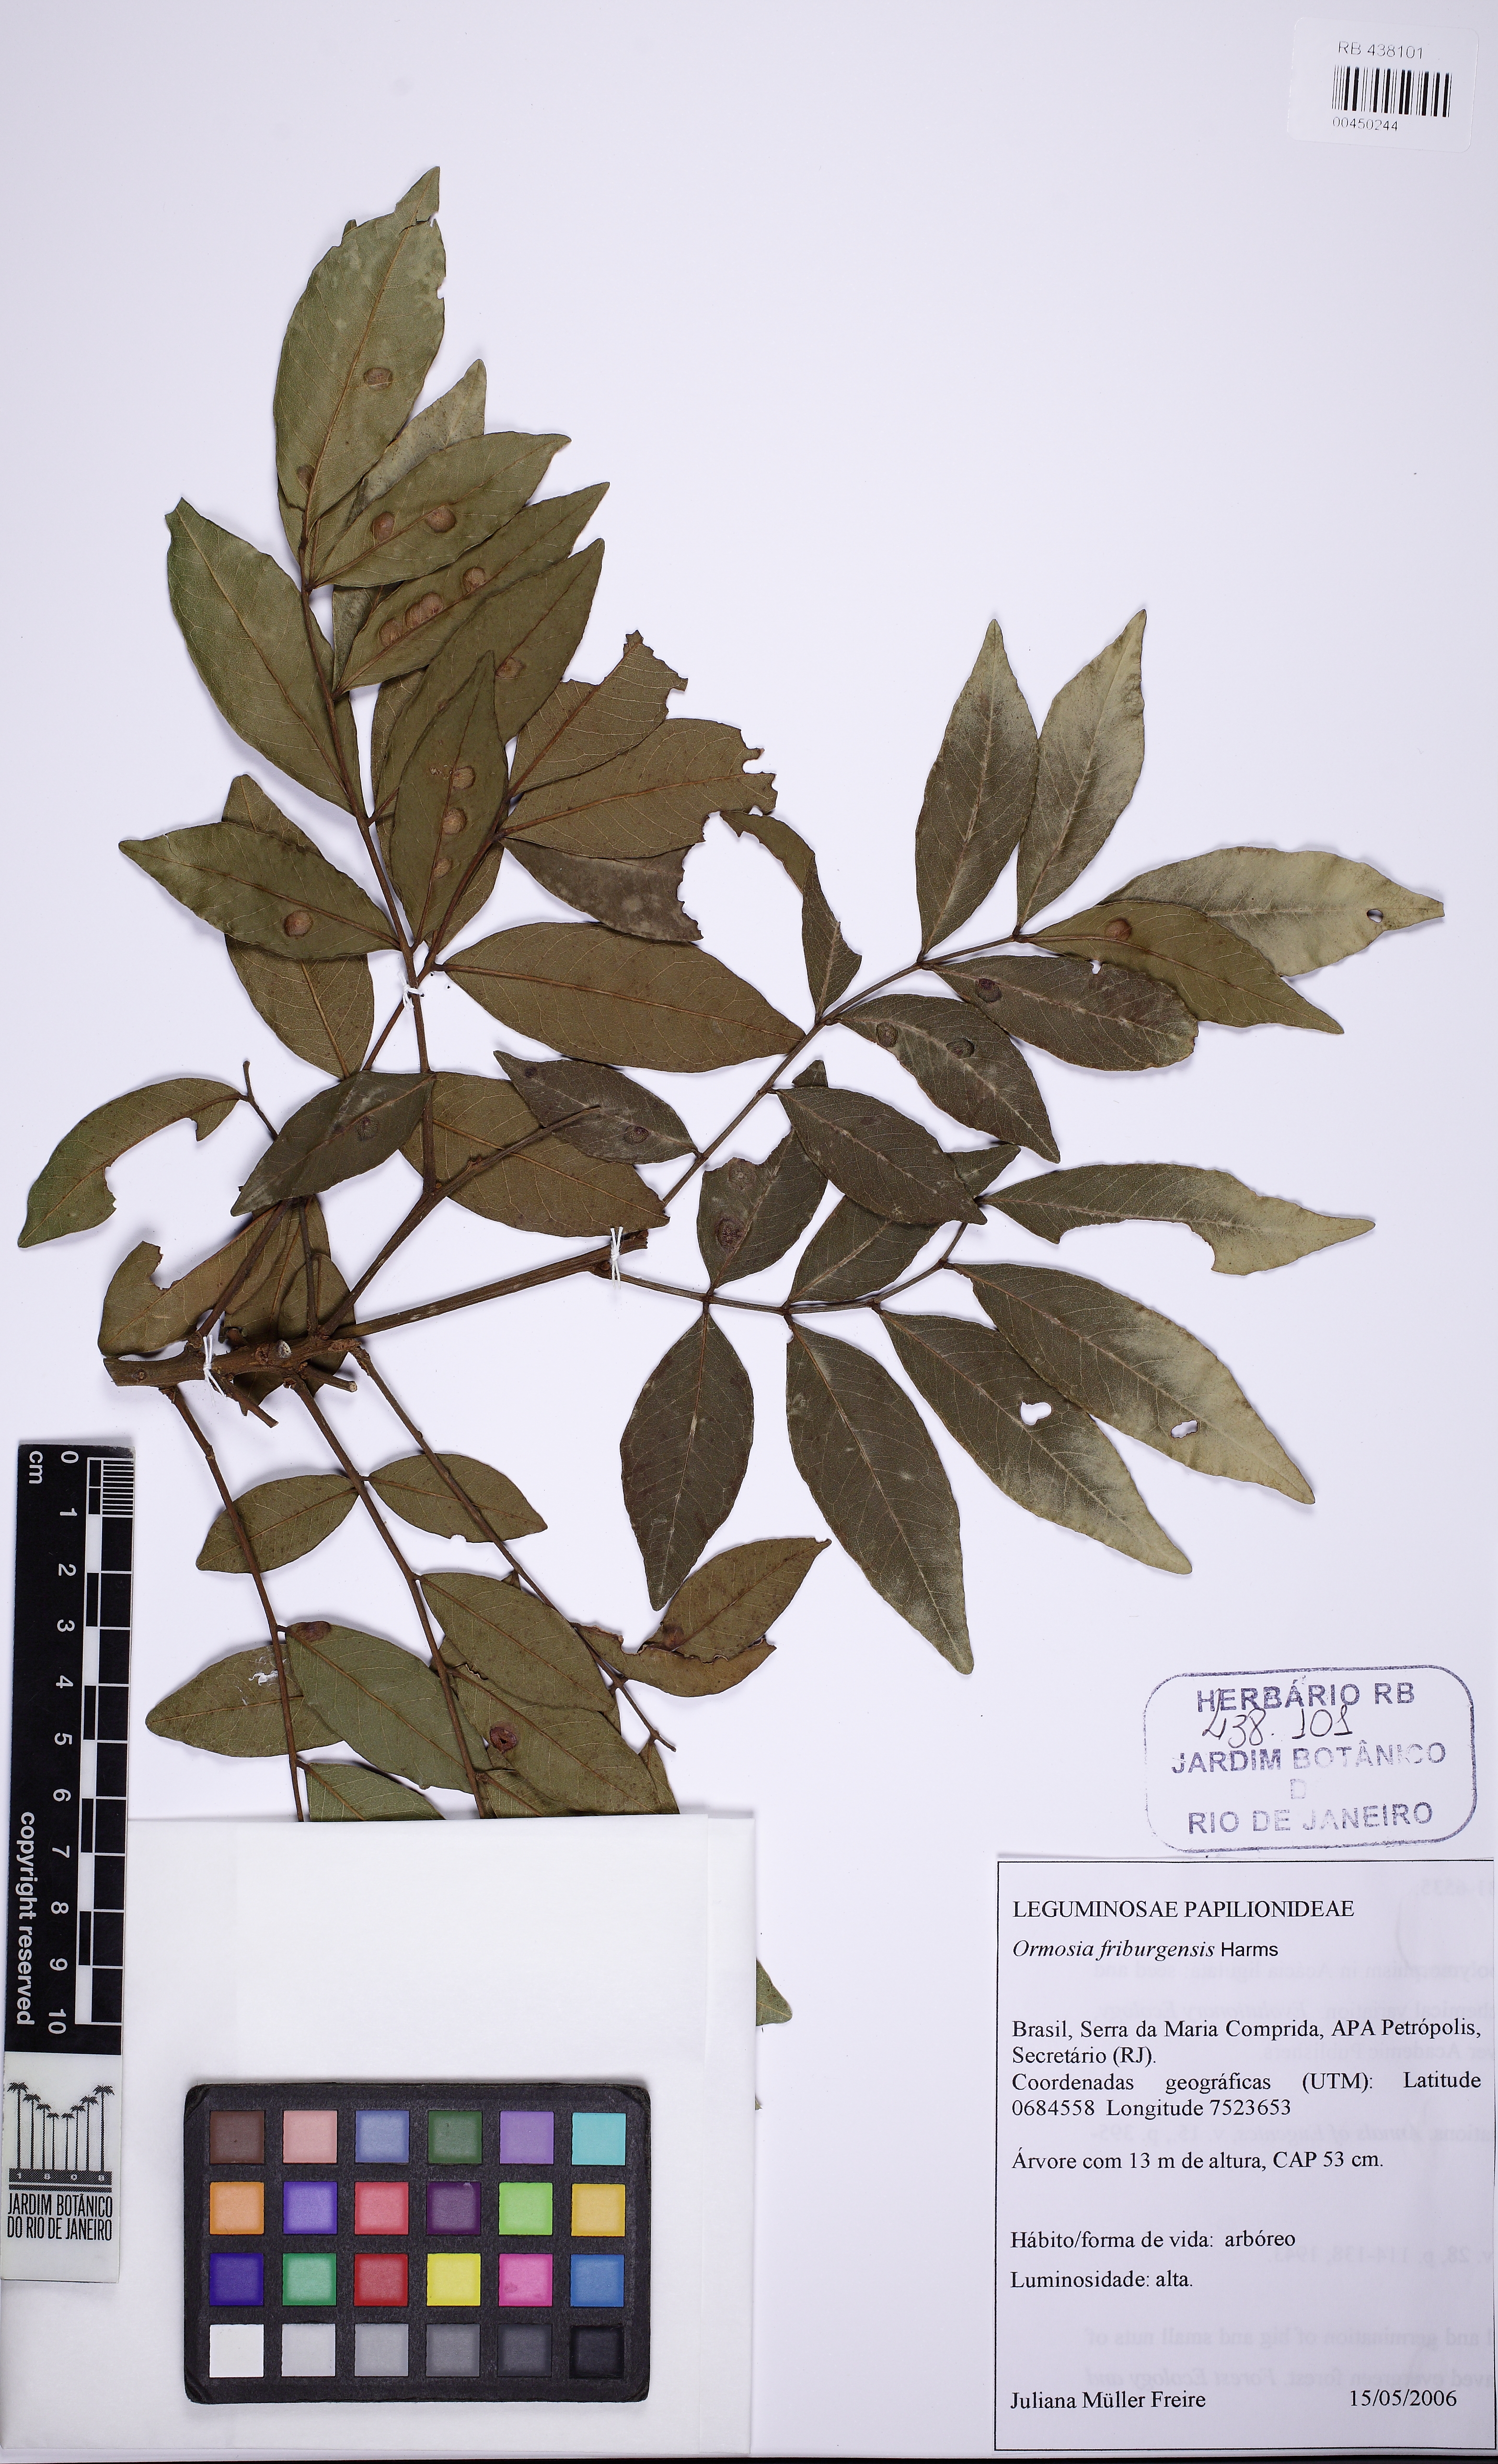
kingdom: Plantae
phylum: Tracheophyta
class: Magnoliopsida
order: Fabales
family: Fabaceae
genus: Ormosia
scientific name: Ormosia friburgensis
